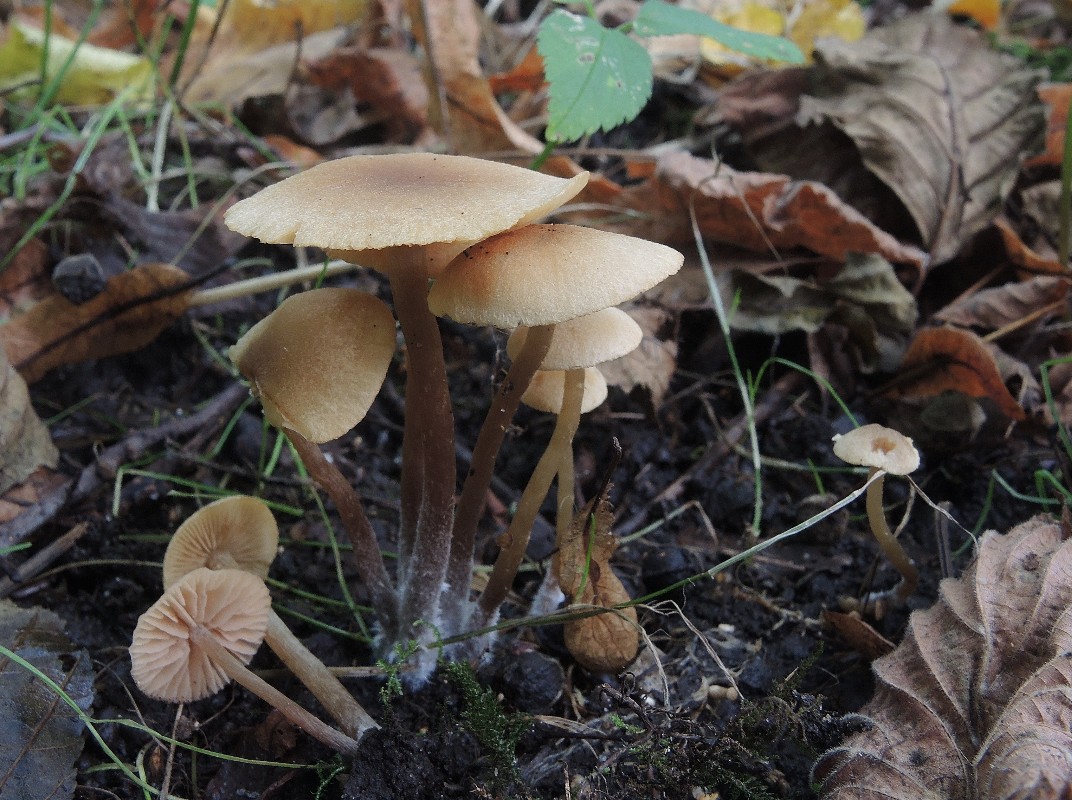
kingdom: Fungi
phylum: Basidiomycota
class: Agaricomycetes
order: Agaricales
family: Hymenogastraceae
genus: Naucoria
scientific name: Naucoria escharioides
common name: lys elle-knaphat
